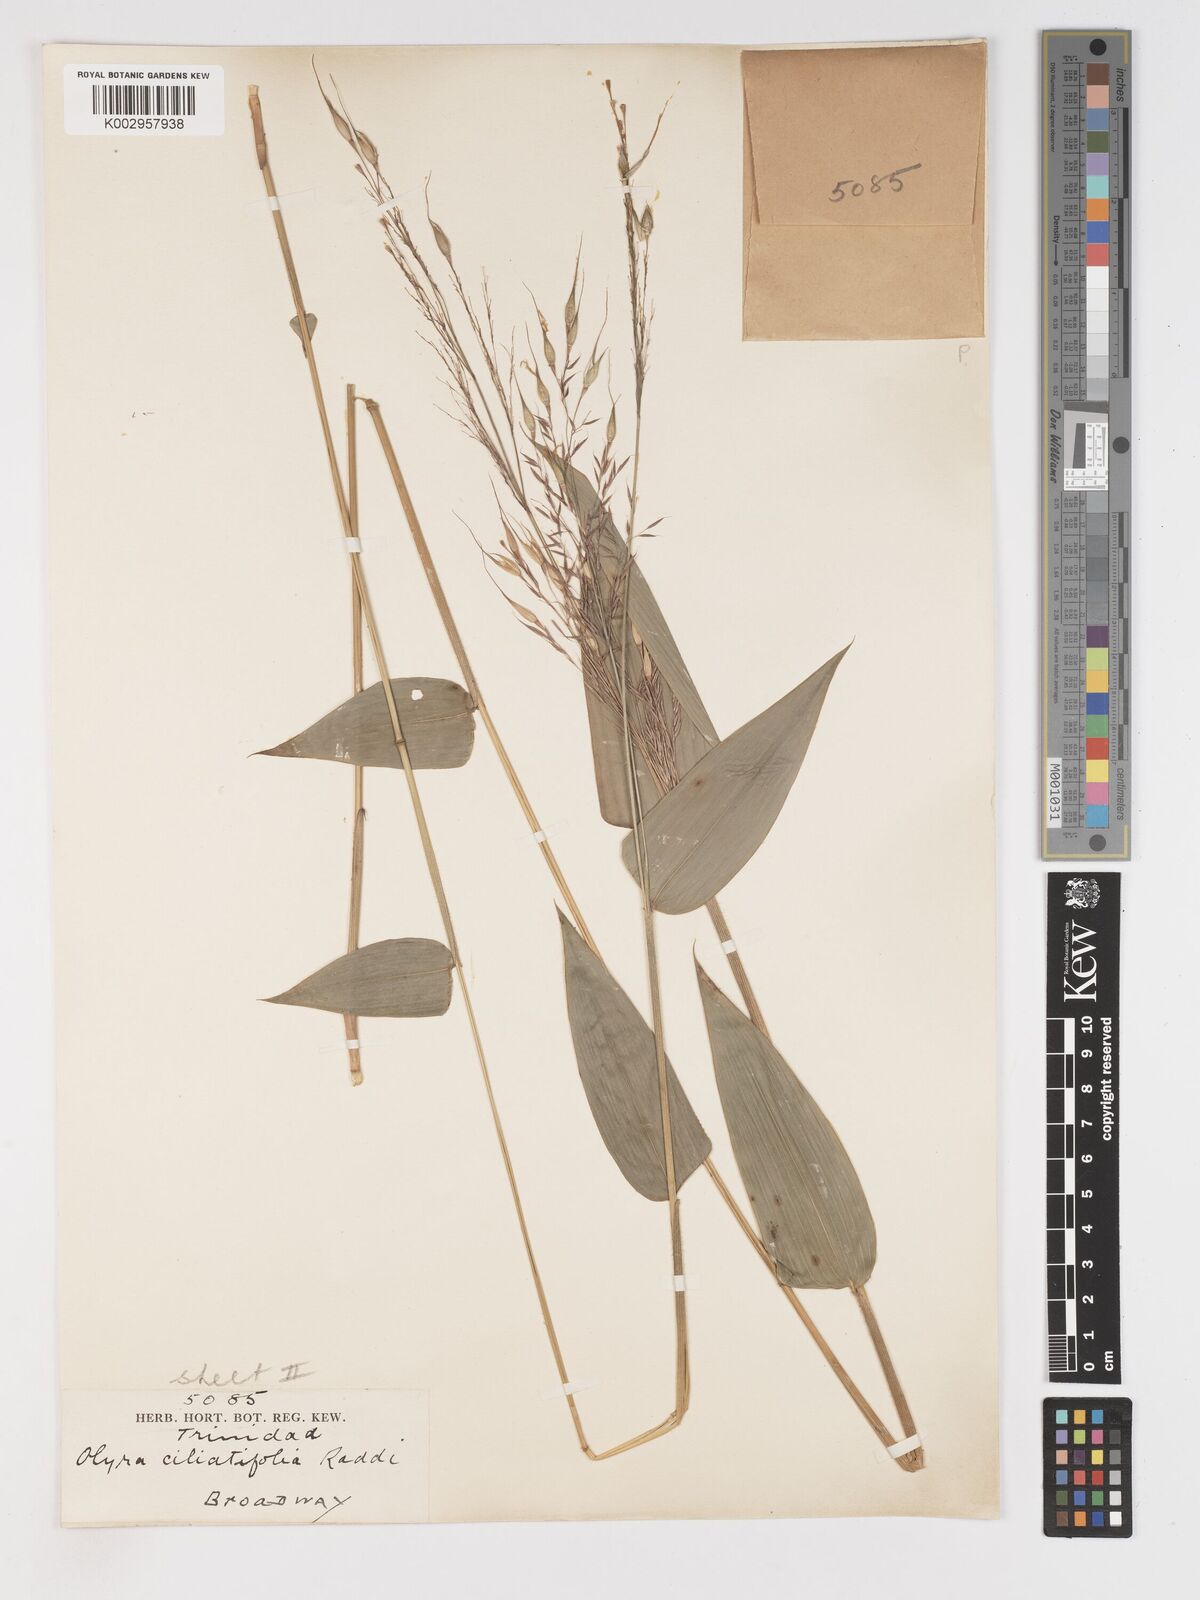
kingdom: Plantae
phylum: Tracheophyta
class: Liliopsida
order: Poales
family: Poaceae
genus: Olyra
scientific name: Olyra ciliatifolia
